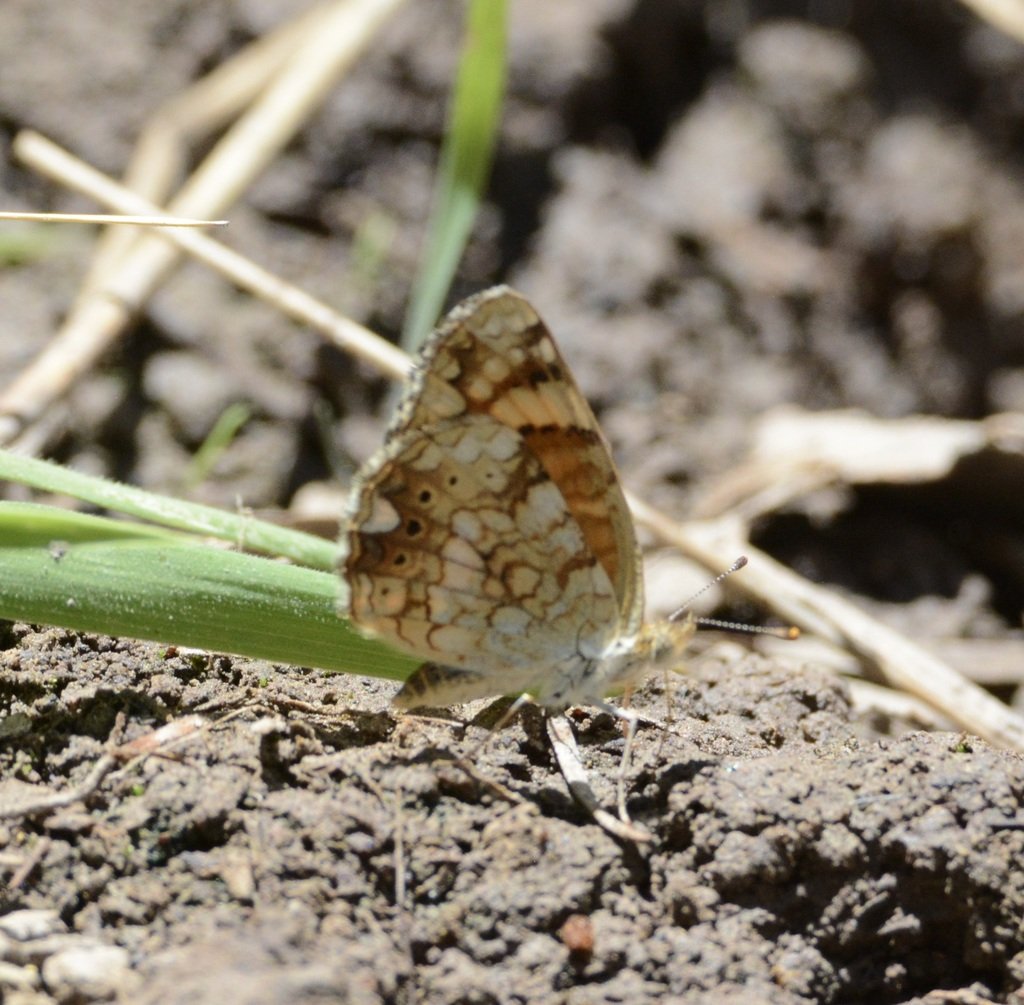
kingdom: Animalia
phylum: Arthropoda
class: Insecta
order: Lepidoptera
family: Nymphalidae
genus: Eresia
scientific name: Eresia aveyrona
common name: Mylitta Crescent
